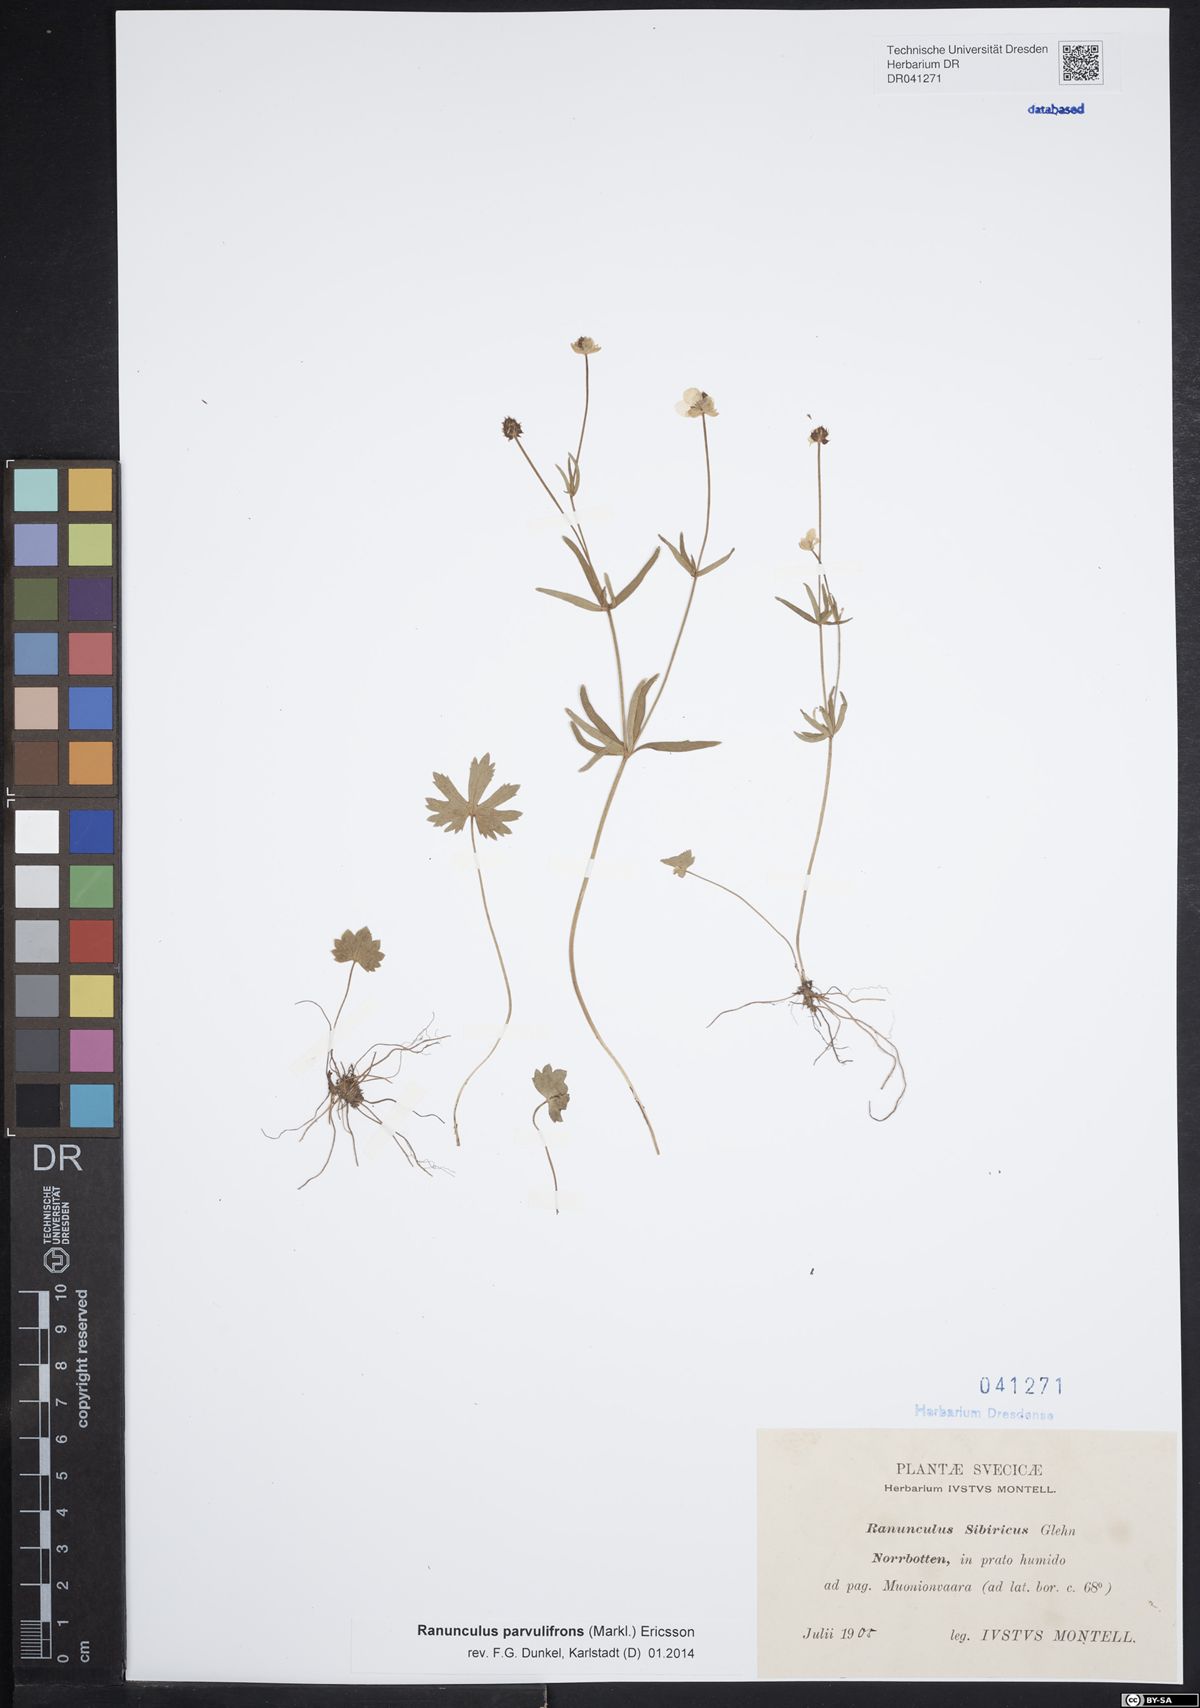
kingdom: Plantae
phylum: Tracheophyta
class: Magnoliopsida
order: Ranunculales
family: Ranunculaceae
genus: Ranunculus
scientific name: Ranunculus parvulifrons
